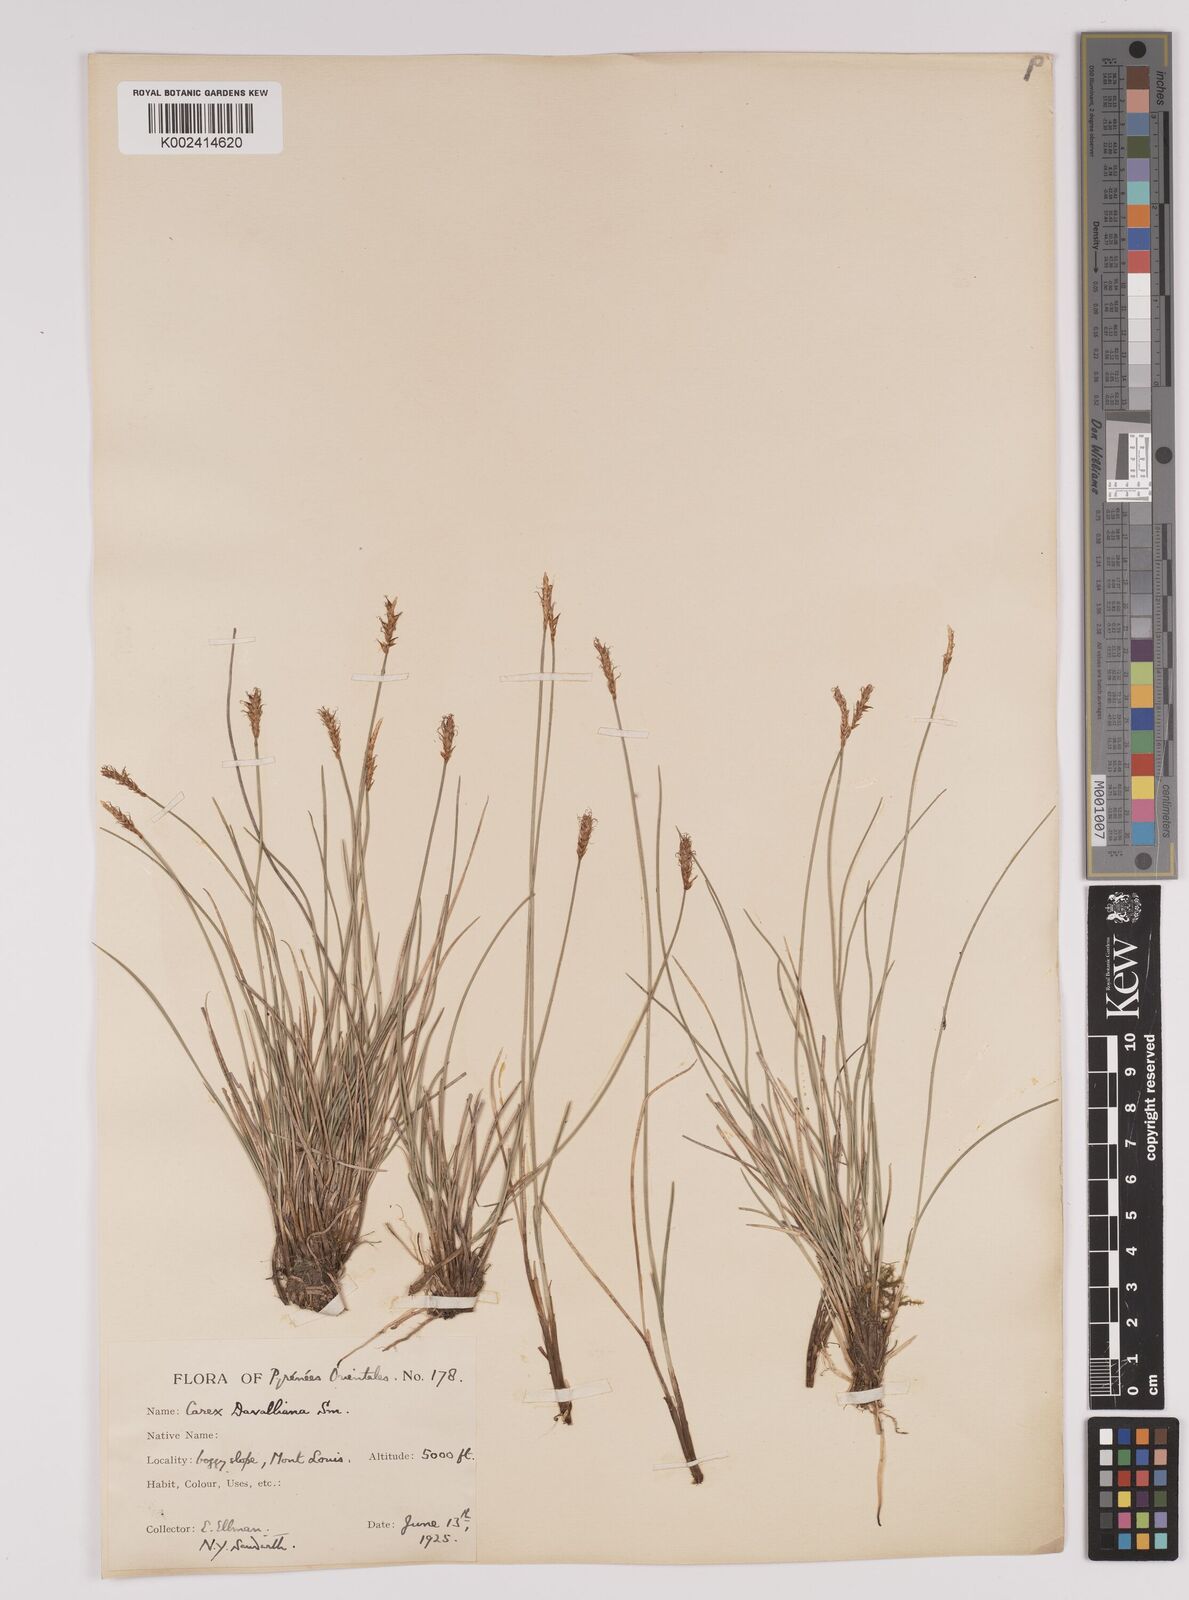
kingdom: Plantae
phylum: Tracheophyta
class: Liliopsida
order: Poales
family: Cyperaceae
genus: Carex
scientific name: Carex davalliana
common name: Davall's sedge
